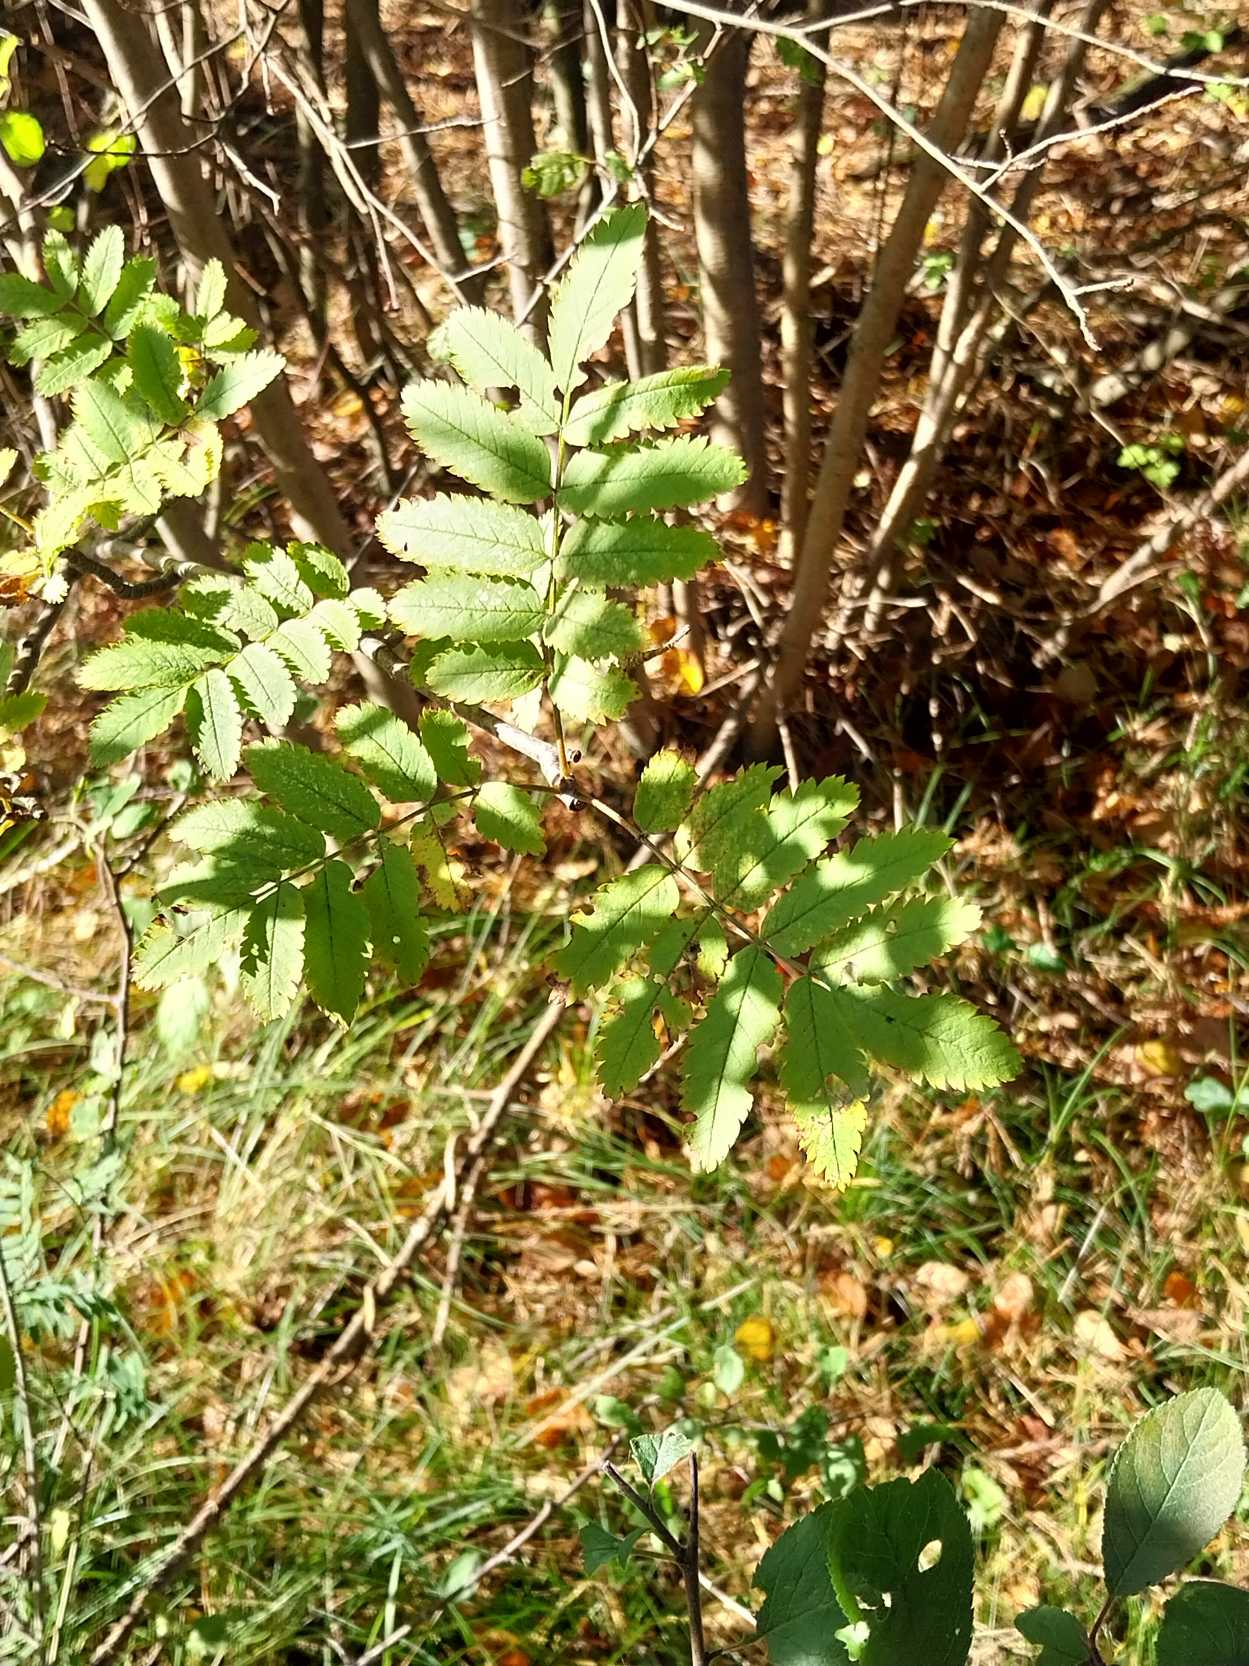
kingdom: Plantae
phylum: Tracheophyta
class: Magnoliopsida
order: Rosales
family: Rosaceae
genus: Sorbus
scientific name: Sorbus aucuparia
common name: Almindelig røn
